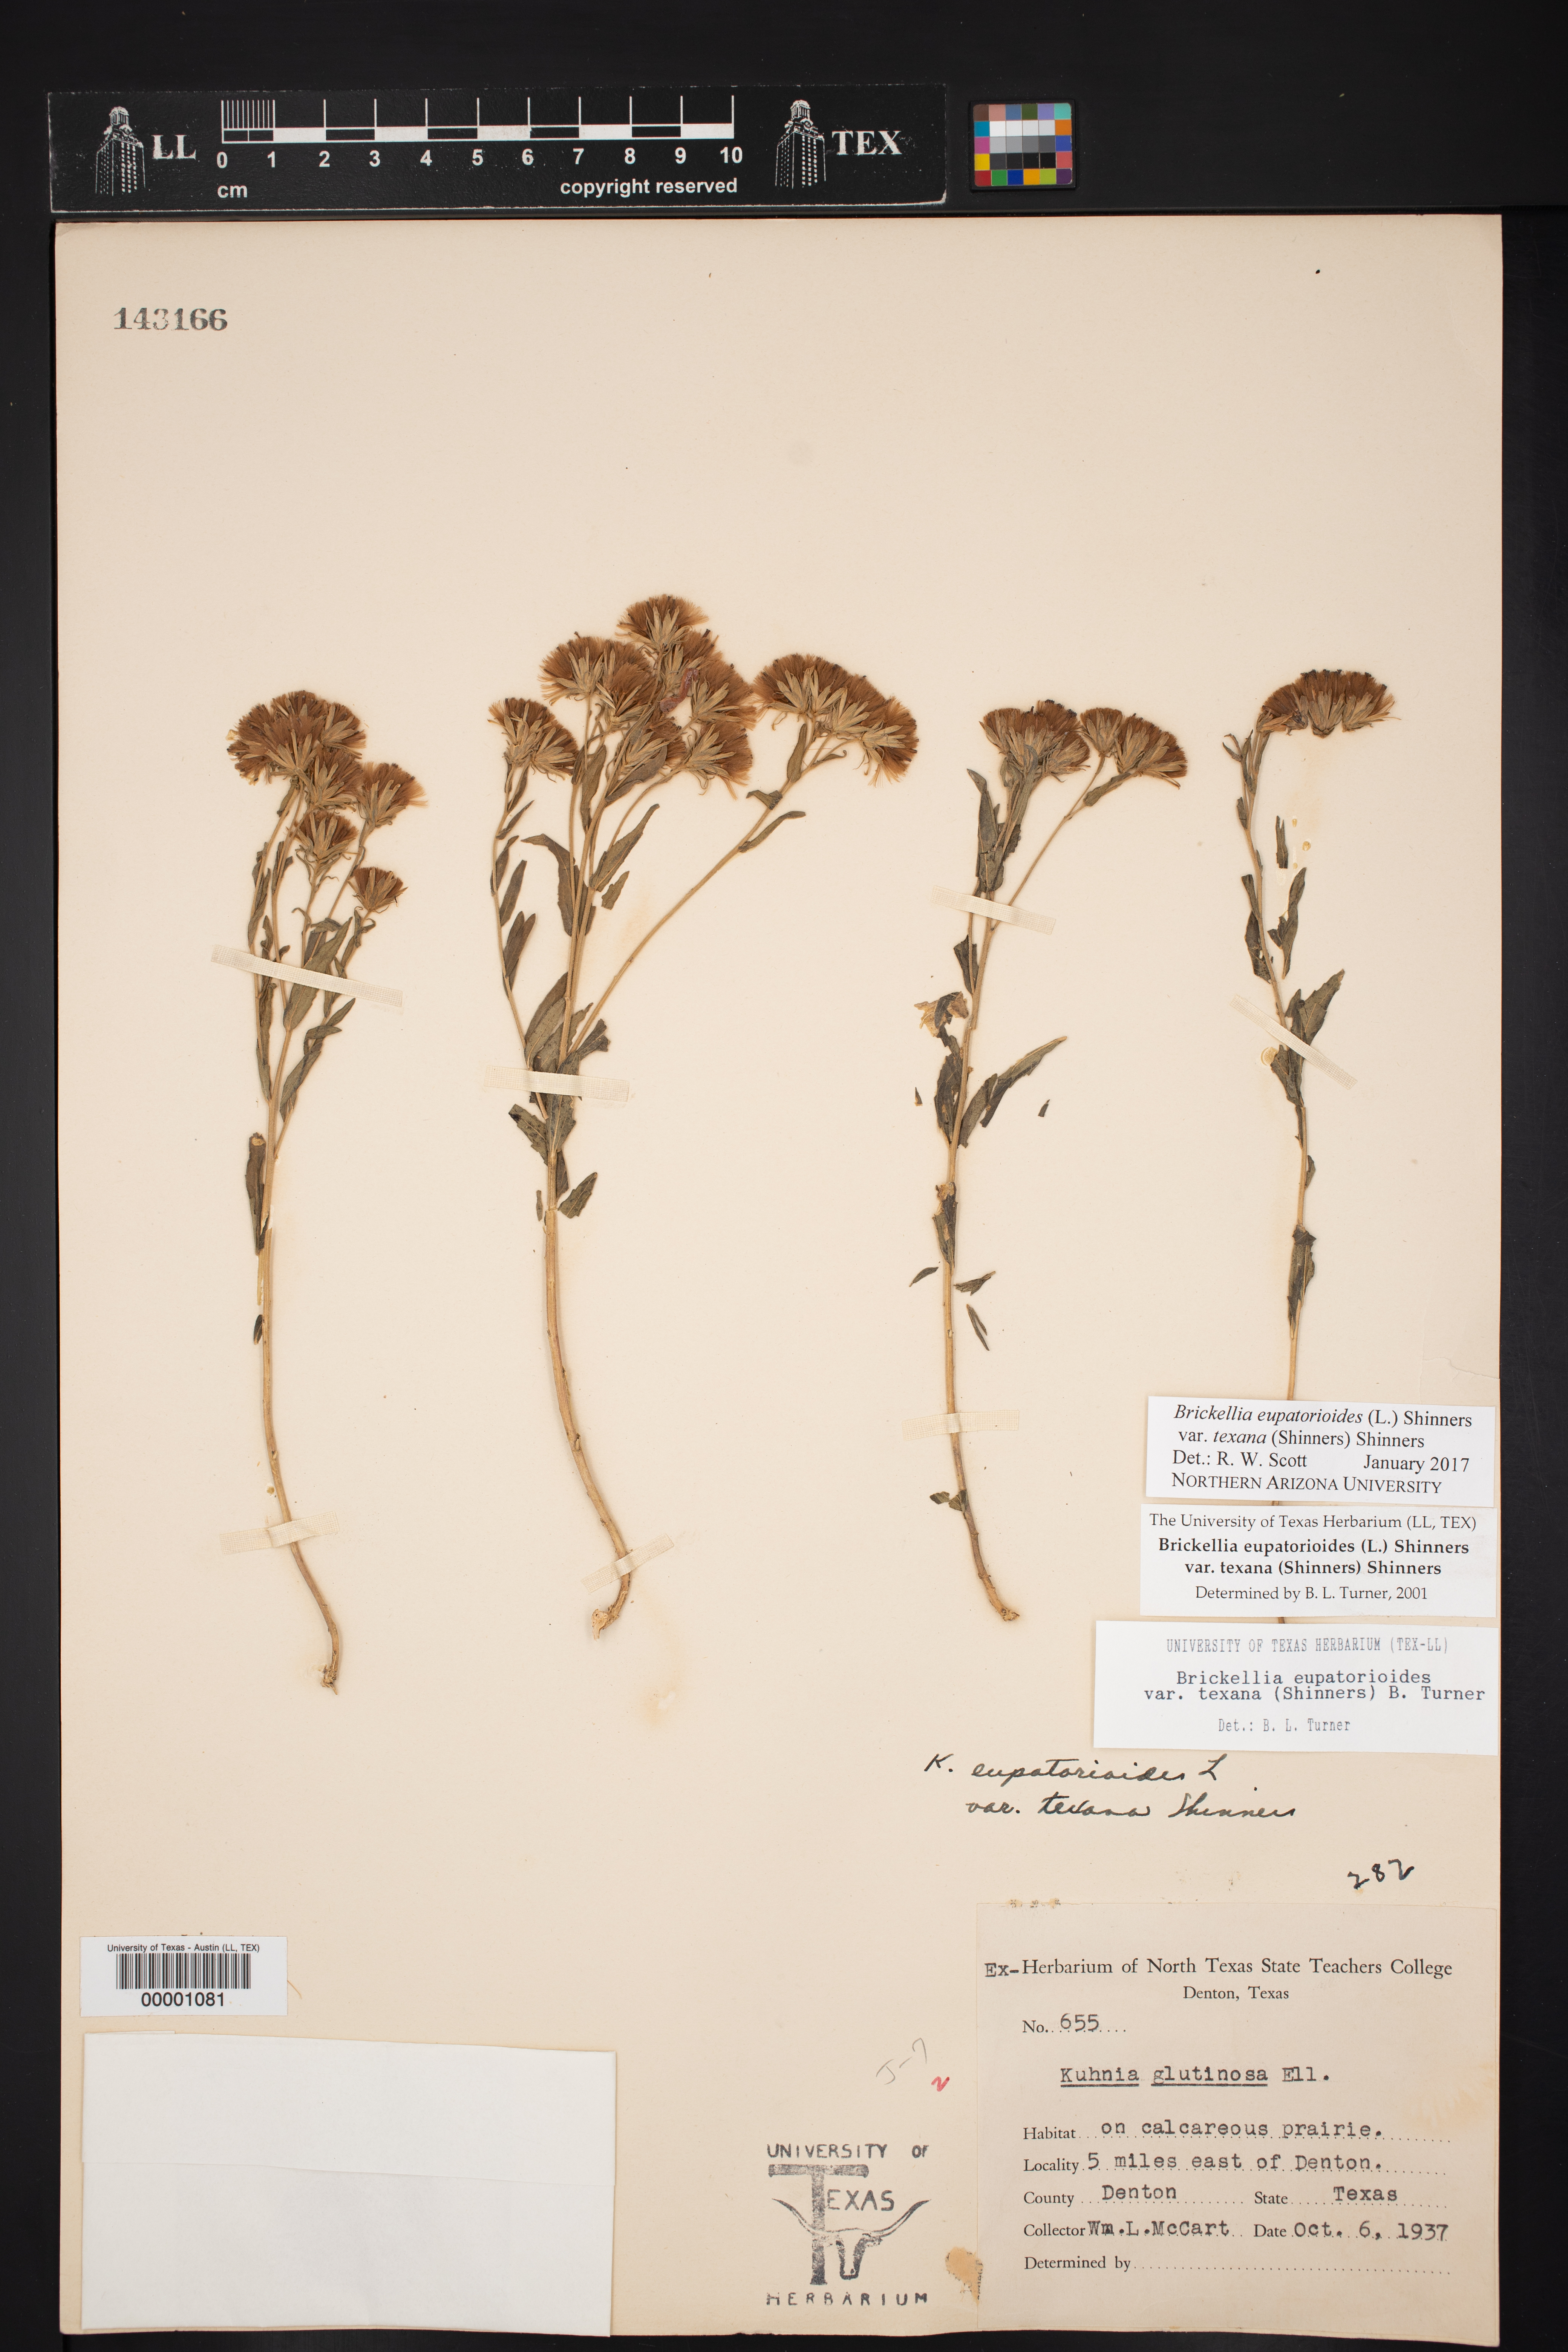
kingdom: Plantae
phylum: Tracheophyta
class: Magnoliopsida
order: Asterales
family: Asteraceae
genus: Brickellia
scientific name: Brickellia macranthra
